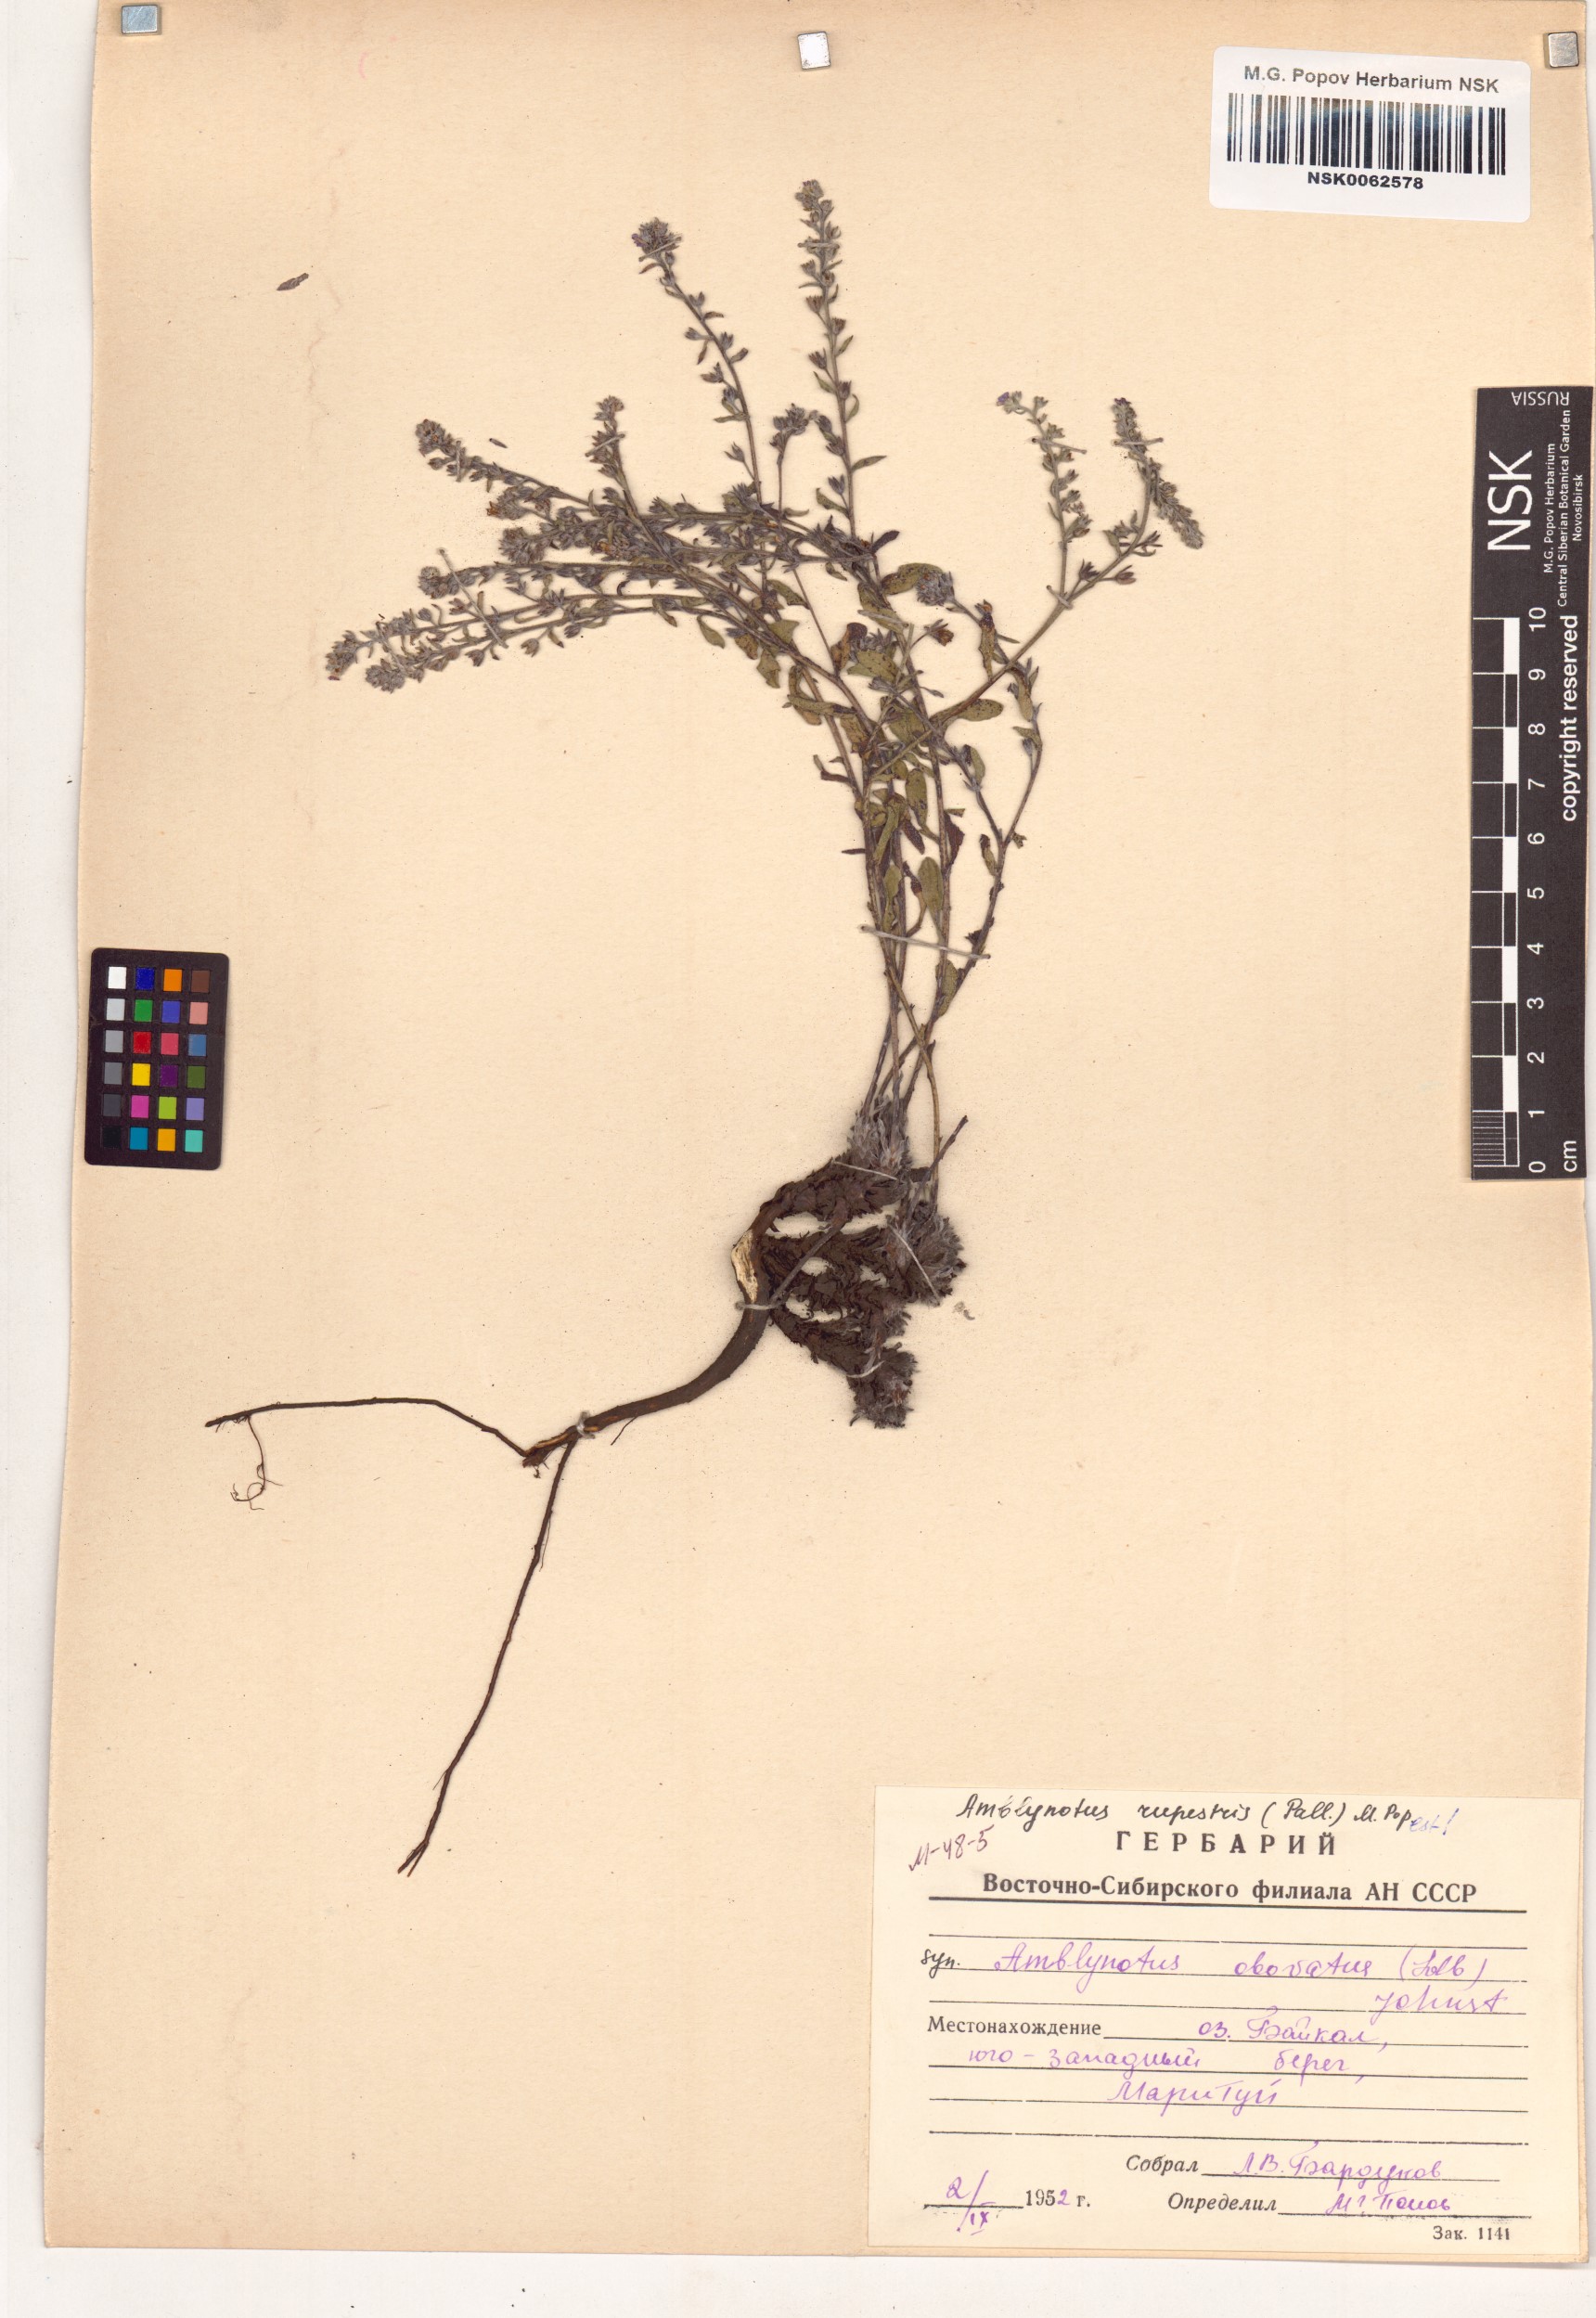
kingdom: Plantae
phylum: Tracheophyta
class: Magnoliopsida
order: Boraginales
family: Boraginaceae
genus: Eritrichium
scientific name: Eritrichium rupestre
